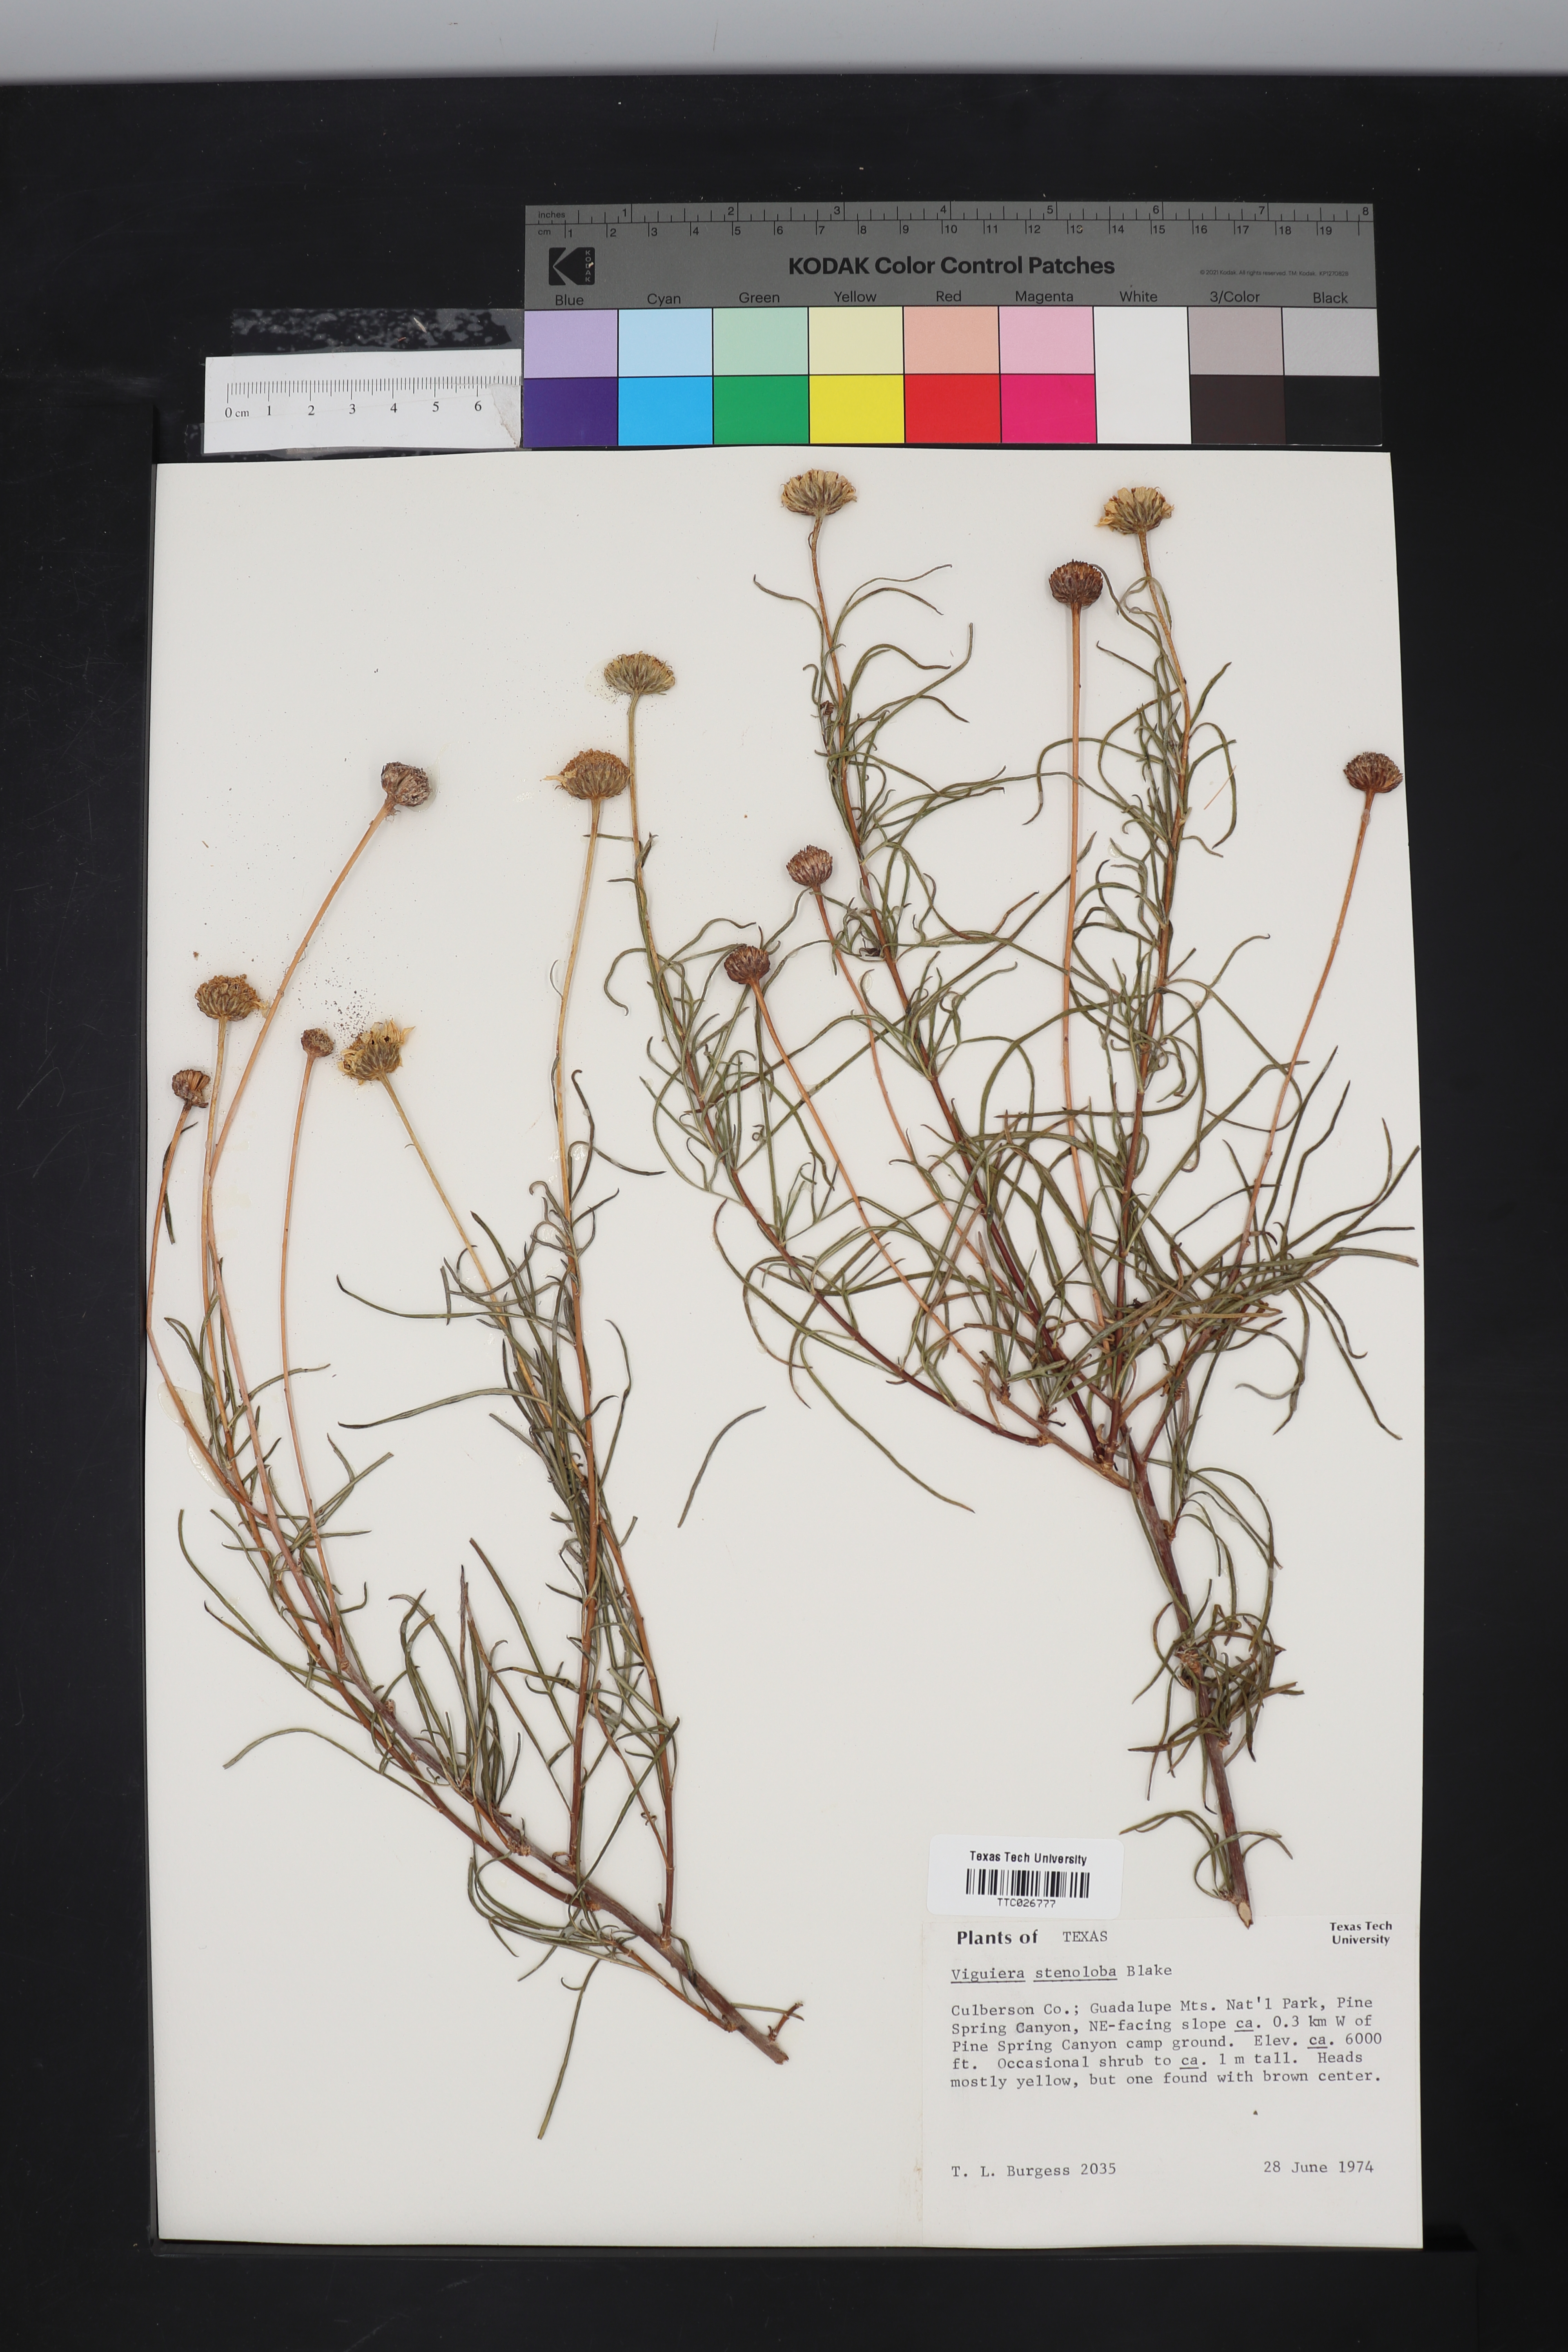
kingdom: Plantae
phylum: Tracheophyta
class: Magnoliopsida
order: Asterales
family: Asteraceae
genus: Sidneya
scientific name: Sidneya tenuifolia
